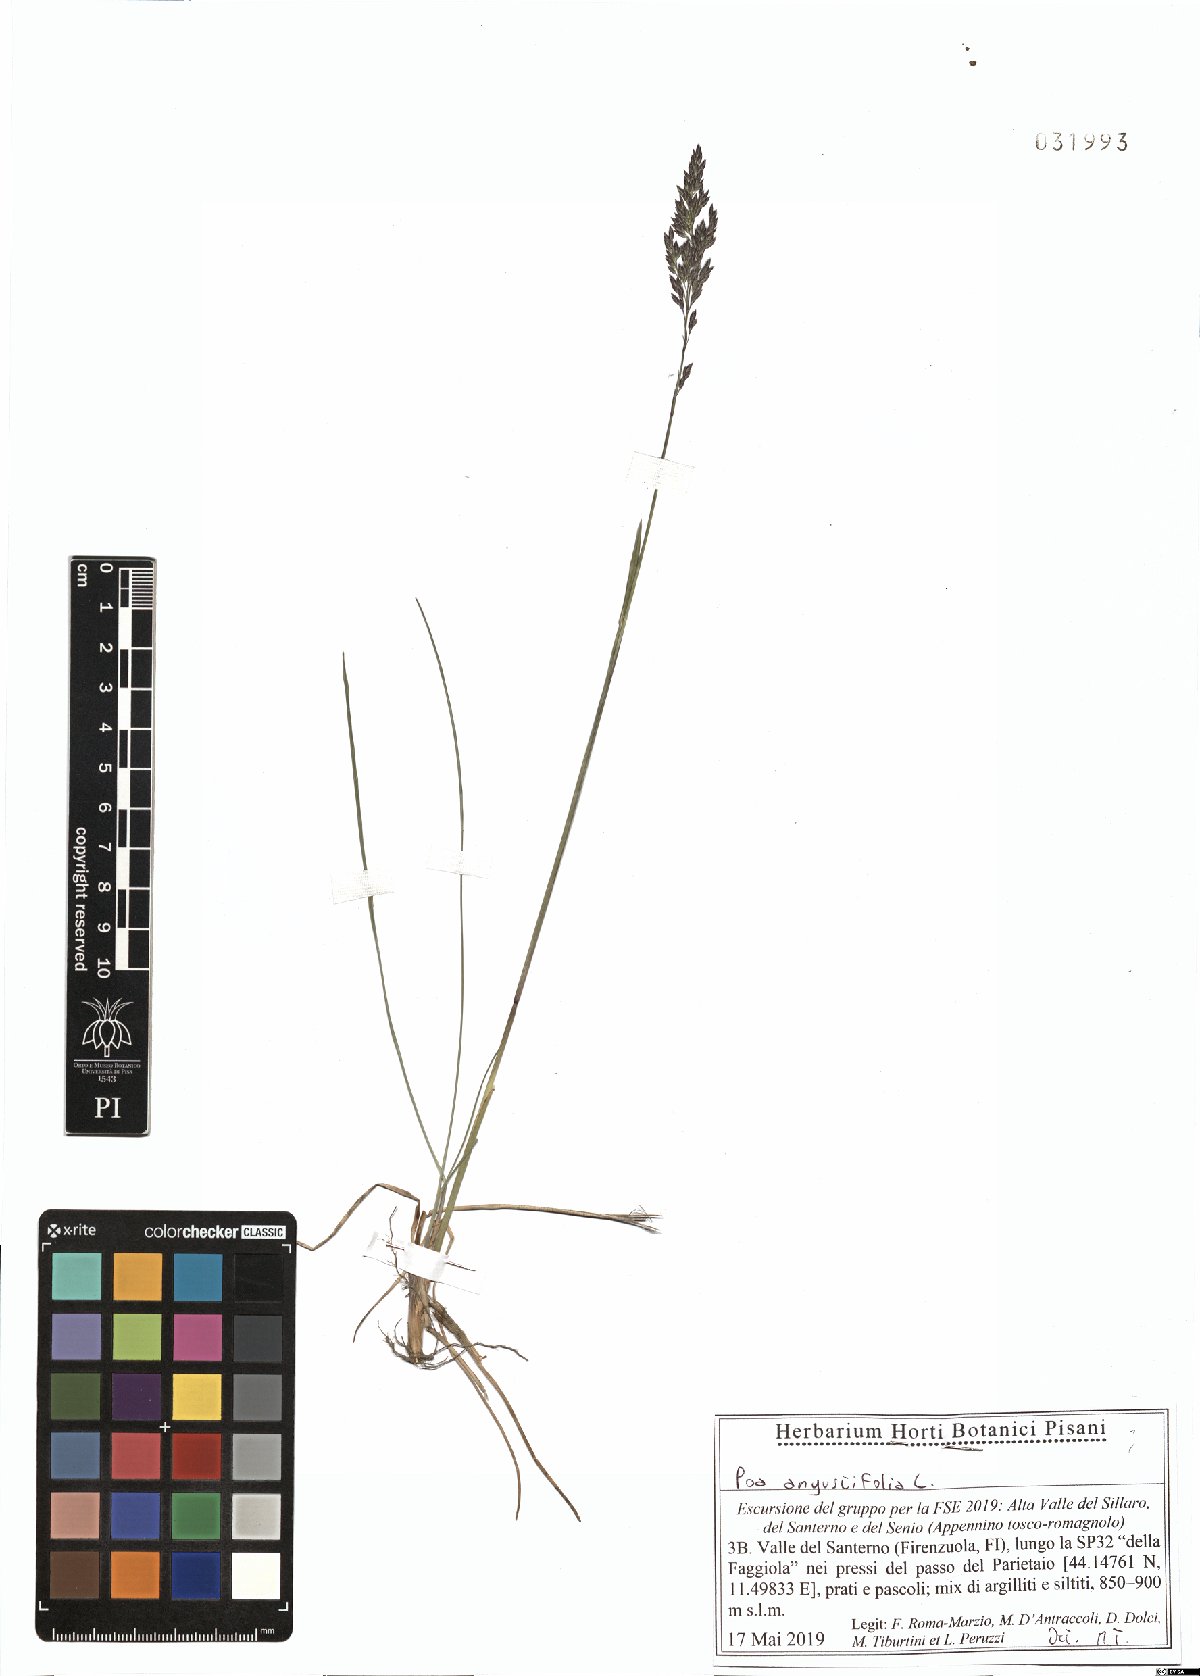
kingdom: Plantae
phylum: Tracheophyta
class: Liliopsida
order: Poales
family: Poaceae
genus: Poa
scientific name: Poa angustifolia
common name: Narrow-leaved meadow-grass
